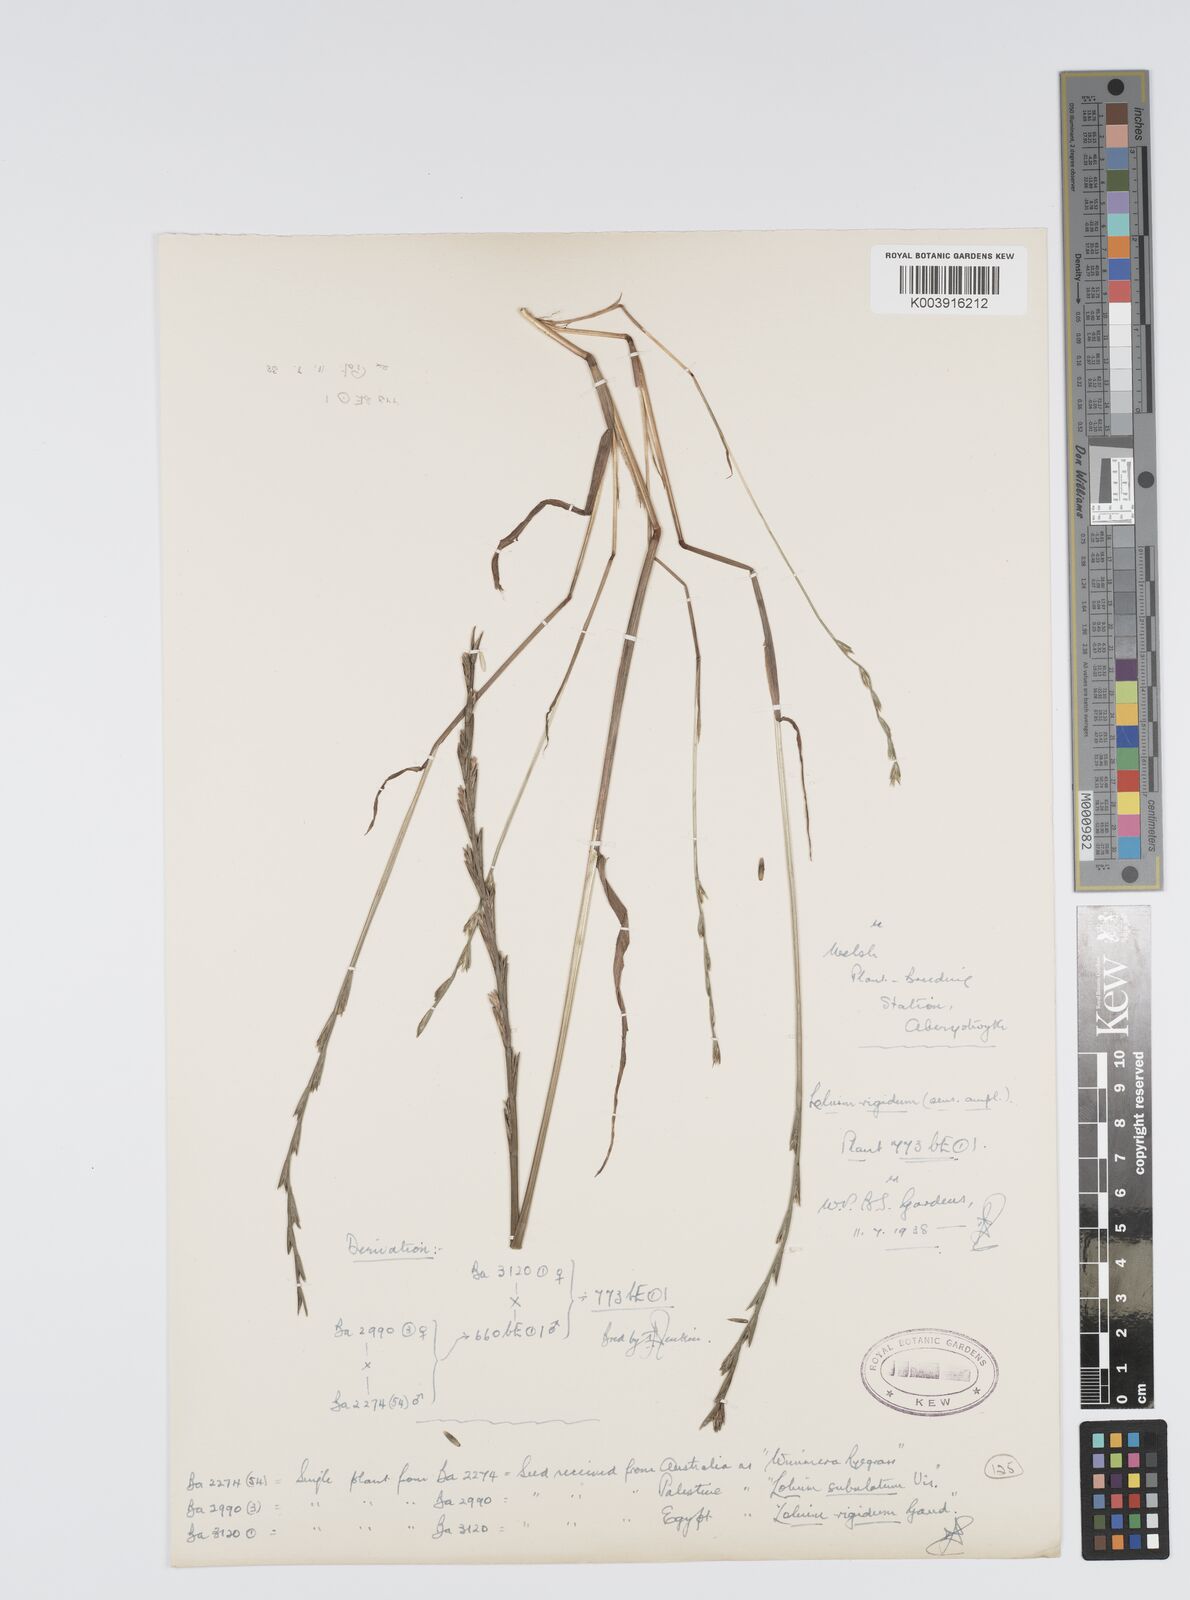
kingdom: Plantae
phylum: Tracheophyta
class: Liliopsida
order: Poales
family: Poaceae
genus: Lolium
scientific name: Lolium rigidum
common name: Wimmera ryegrass
